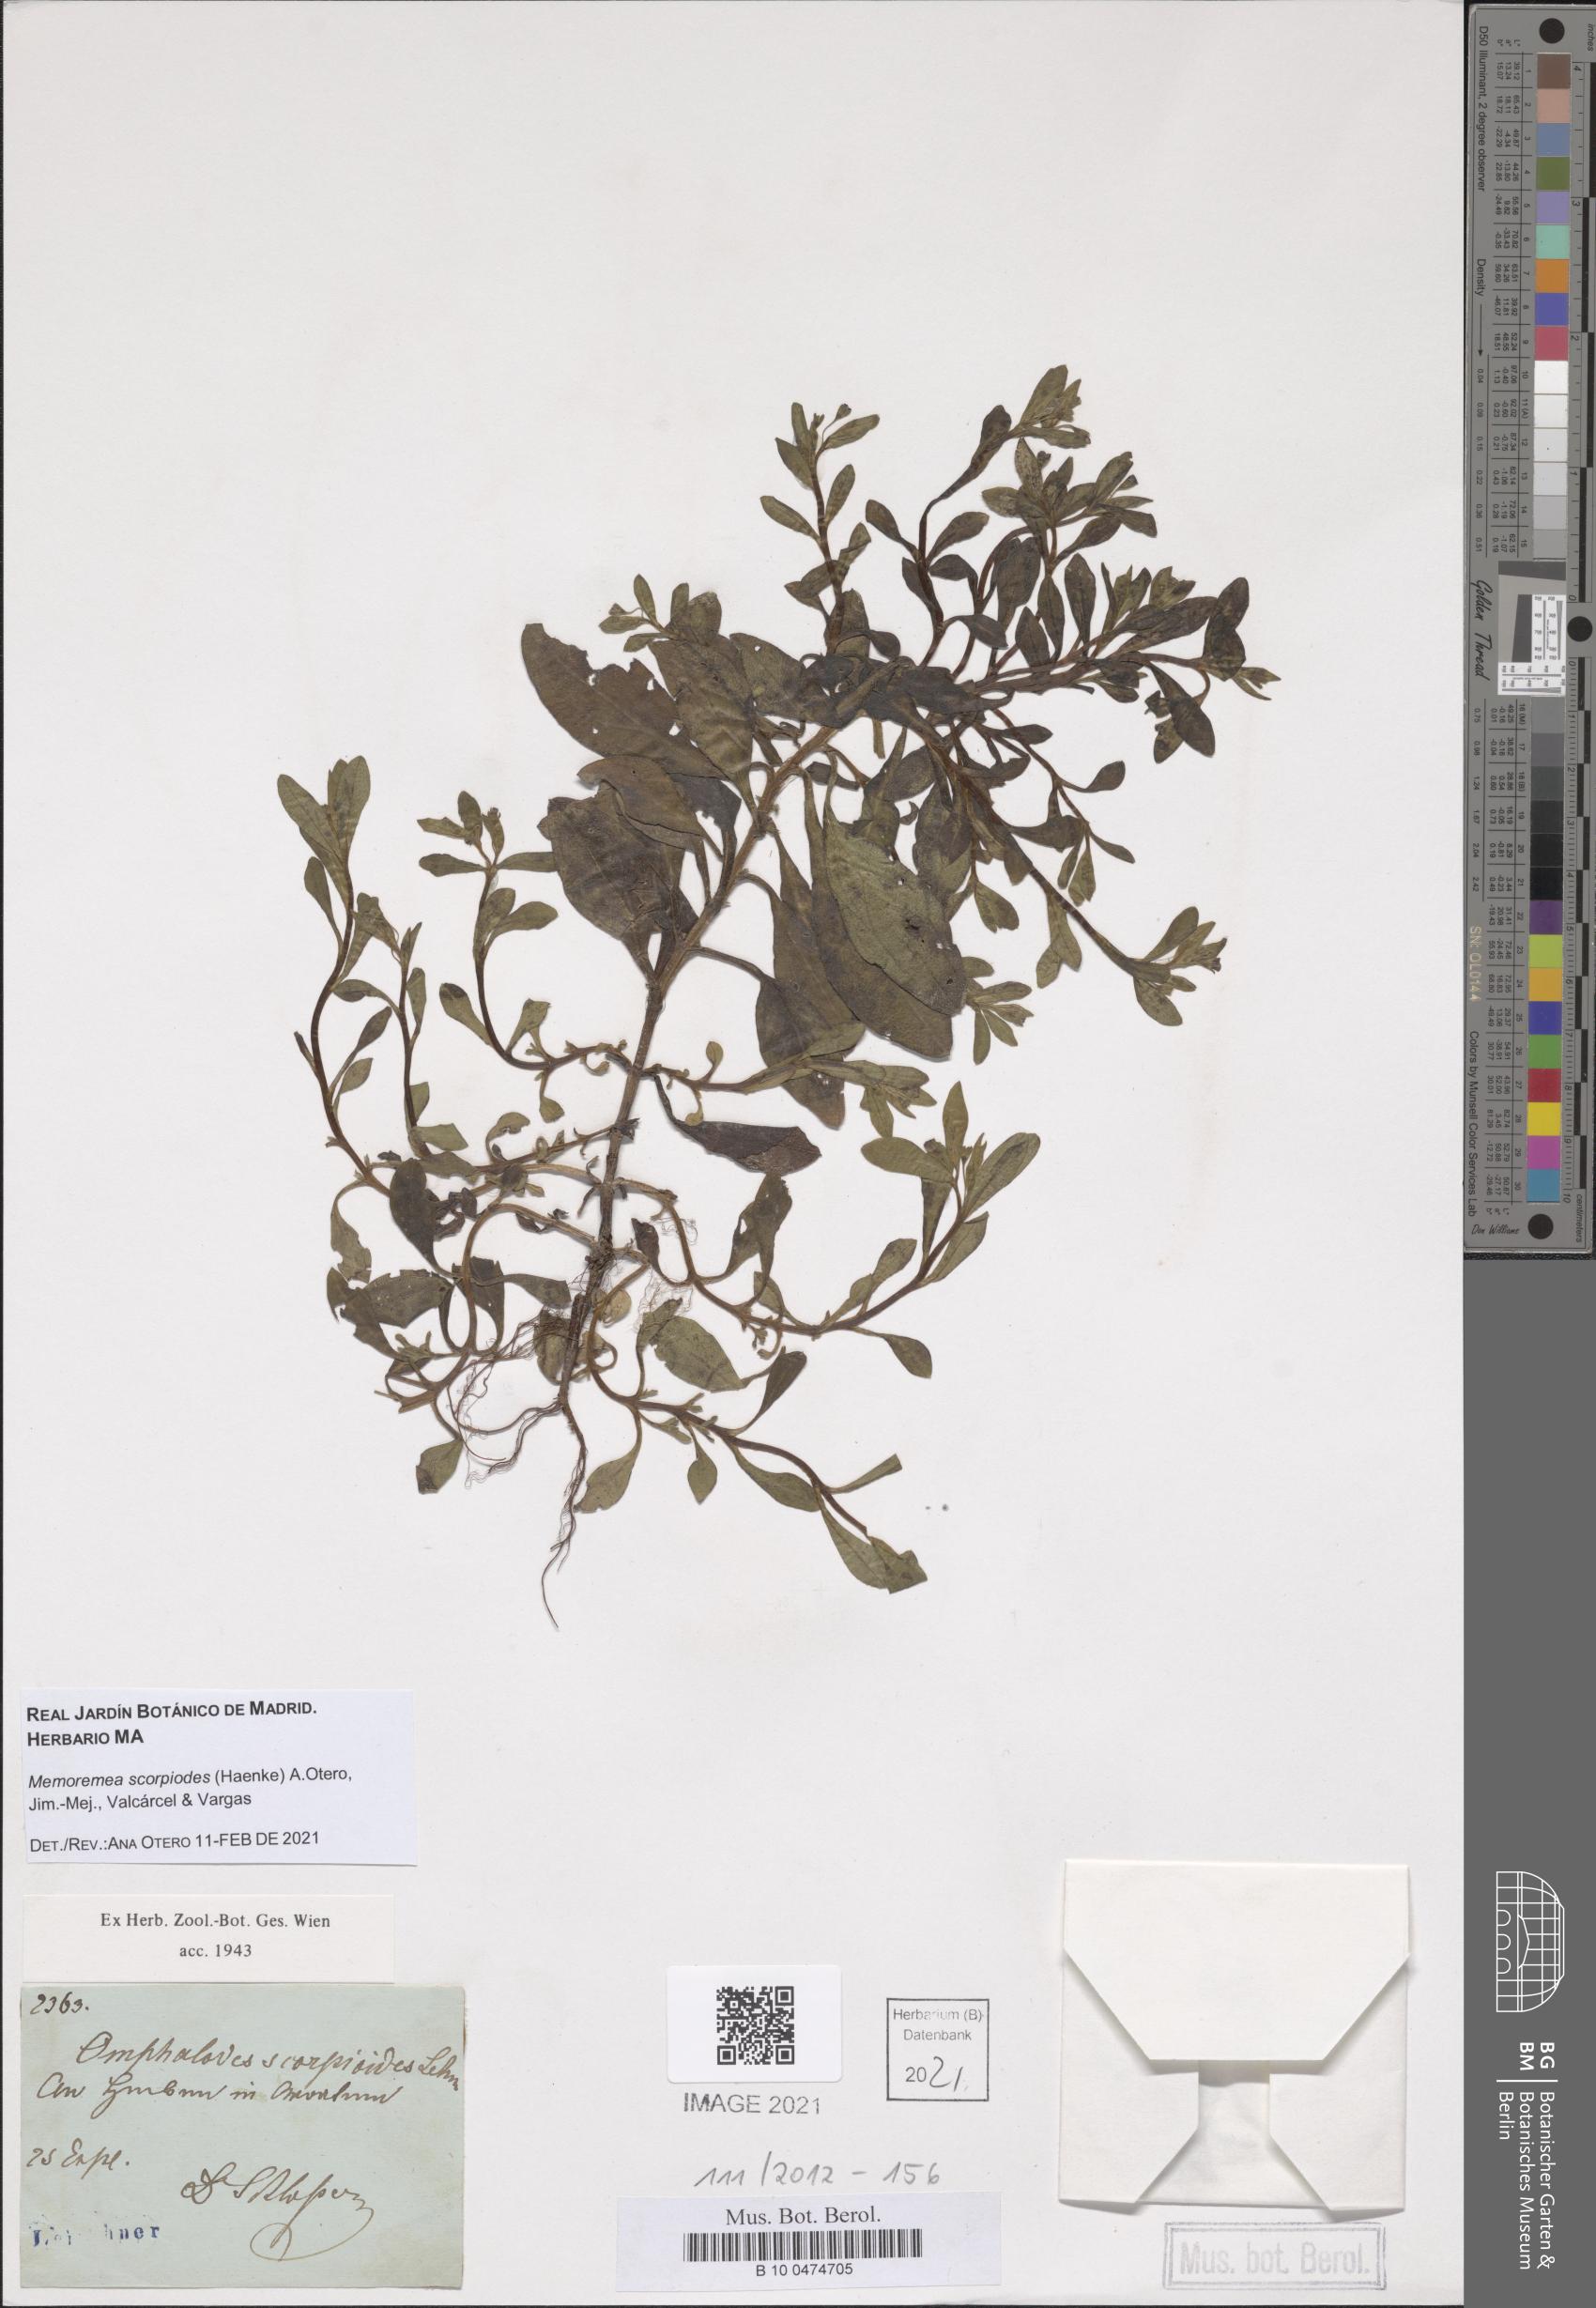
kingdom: Plantae
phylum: Tracheophyta
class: Magnoliopsida
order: Boraginales
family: Boraginaceae
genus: Memoremea
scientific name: Memoremea scorpioides
